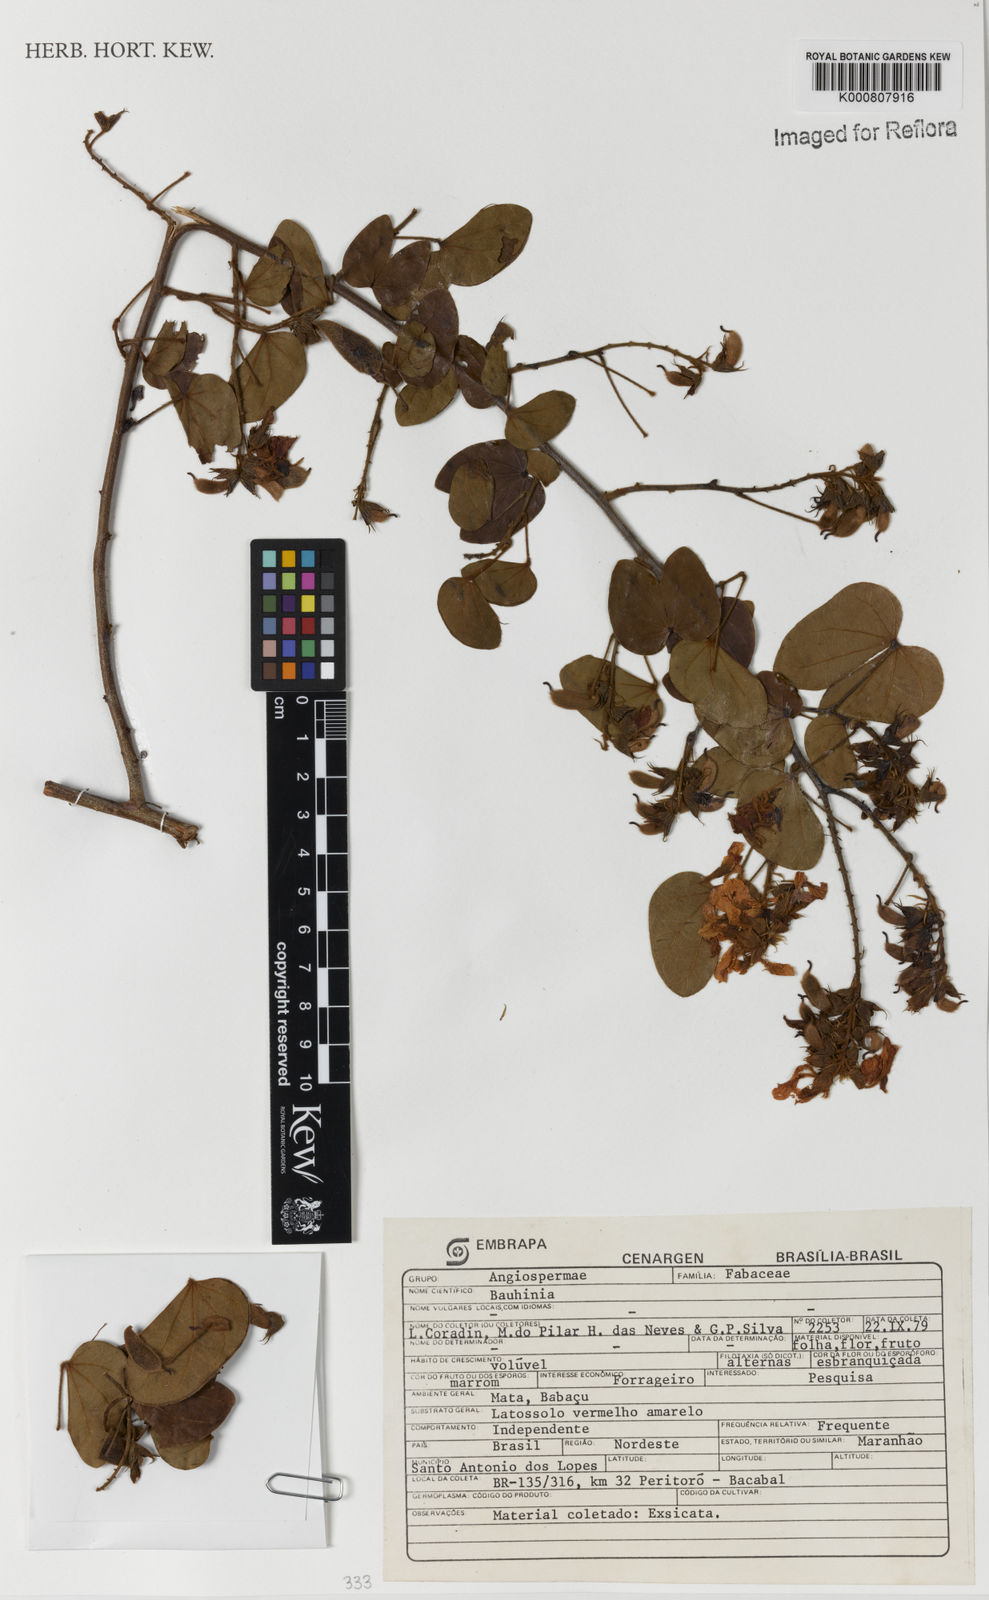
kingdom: Plantae
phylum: Tracheophyta
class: Magnoliopsida
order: Fabales
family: Fabaceae
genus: Schnella
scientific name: Schnella glabra
